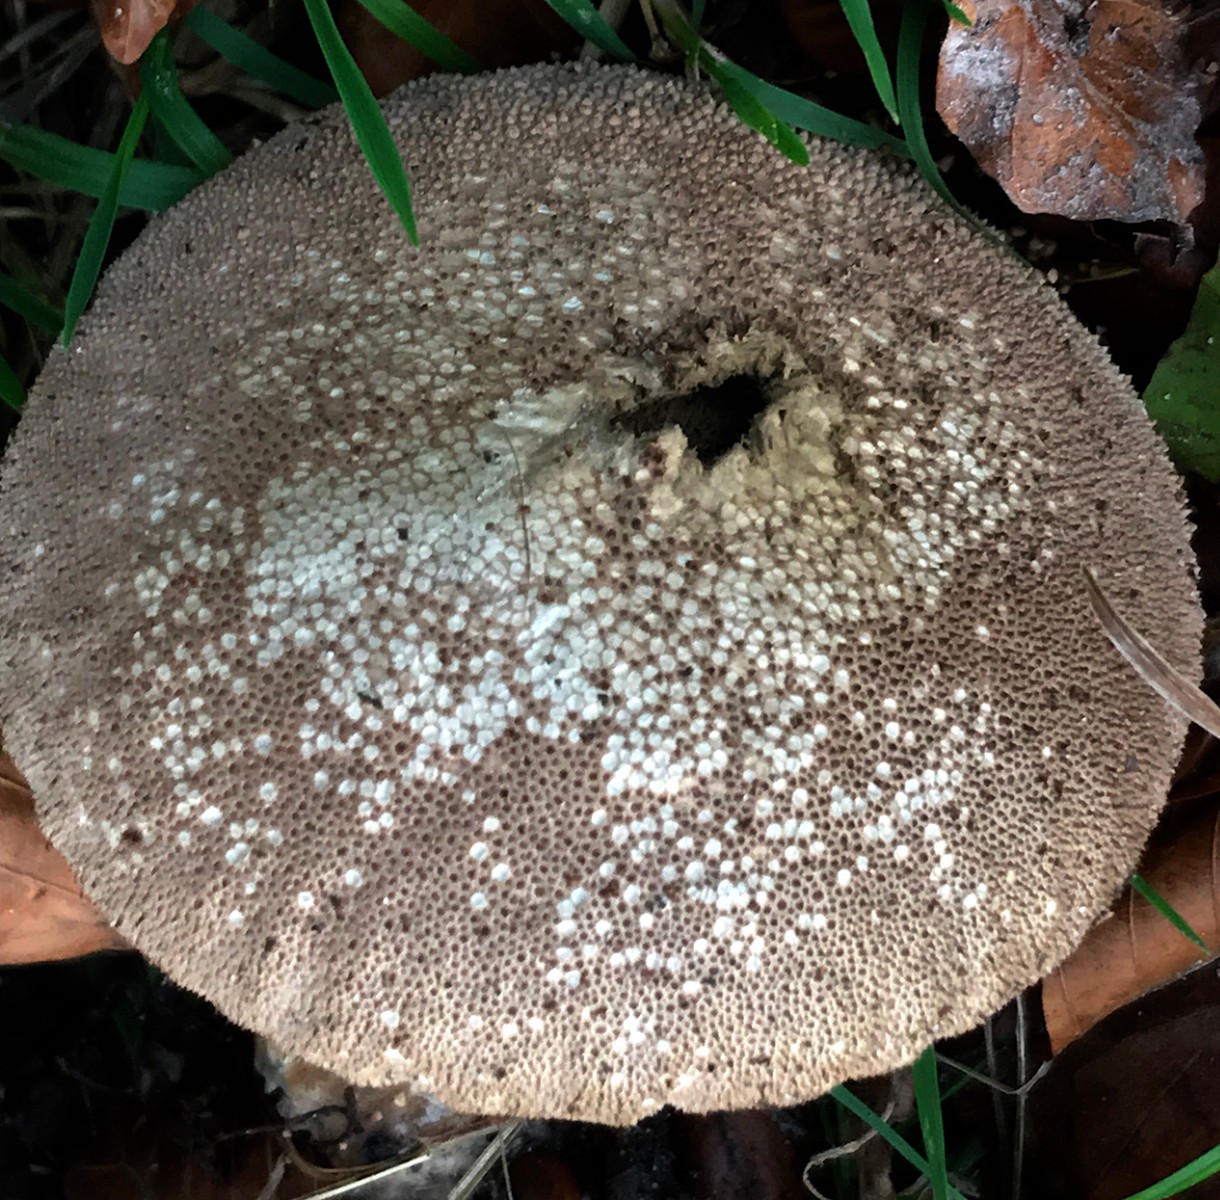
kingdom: Fungi
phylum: Basidiomycota
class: Agaricomycetes
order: Agaricales
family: Lycoperdaceae
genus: Lycoperdon
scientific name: Lycoperdon perlatum
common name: krystal-støvbold
